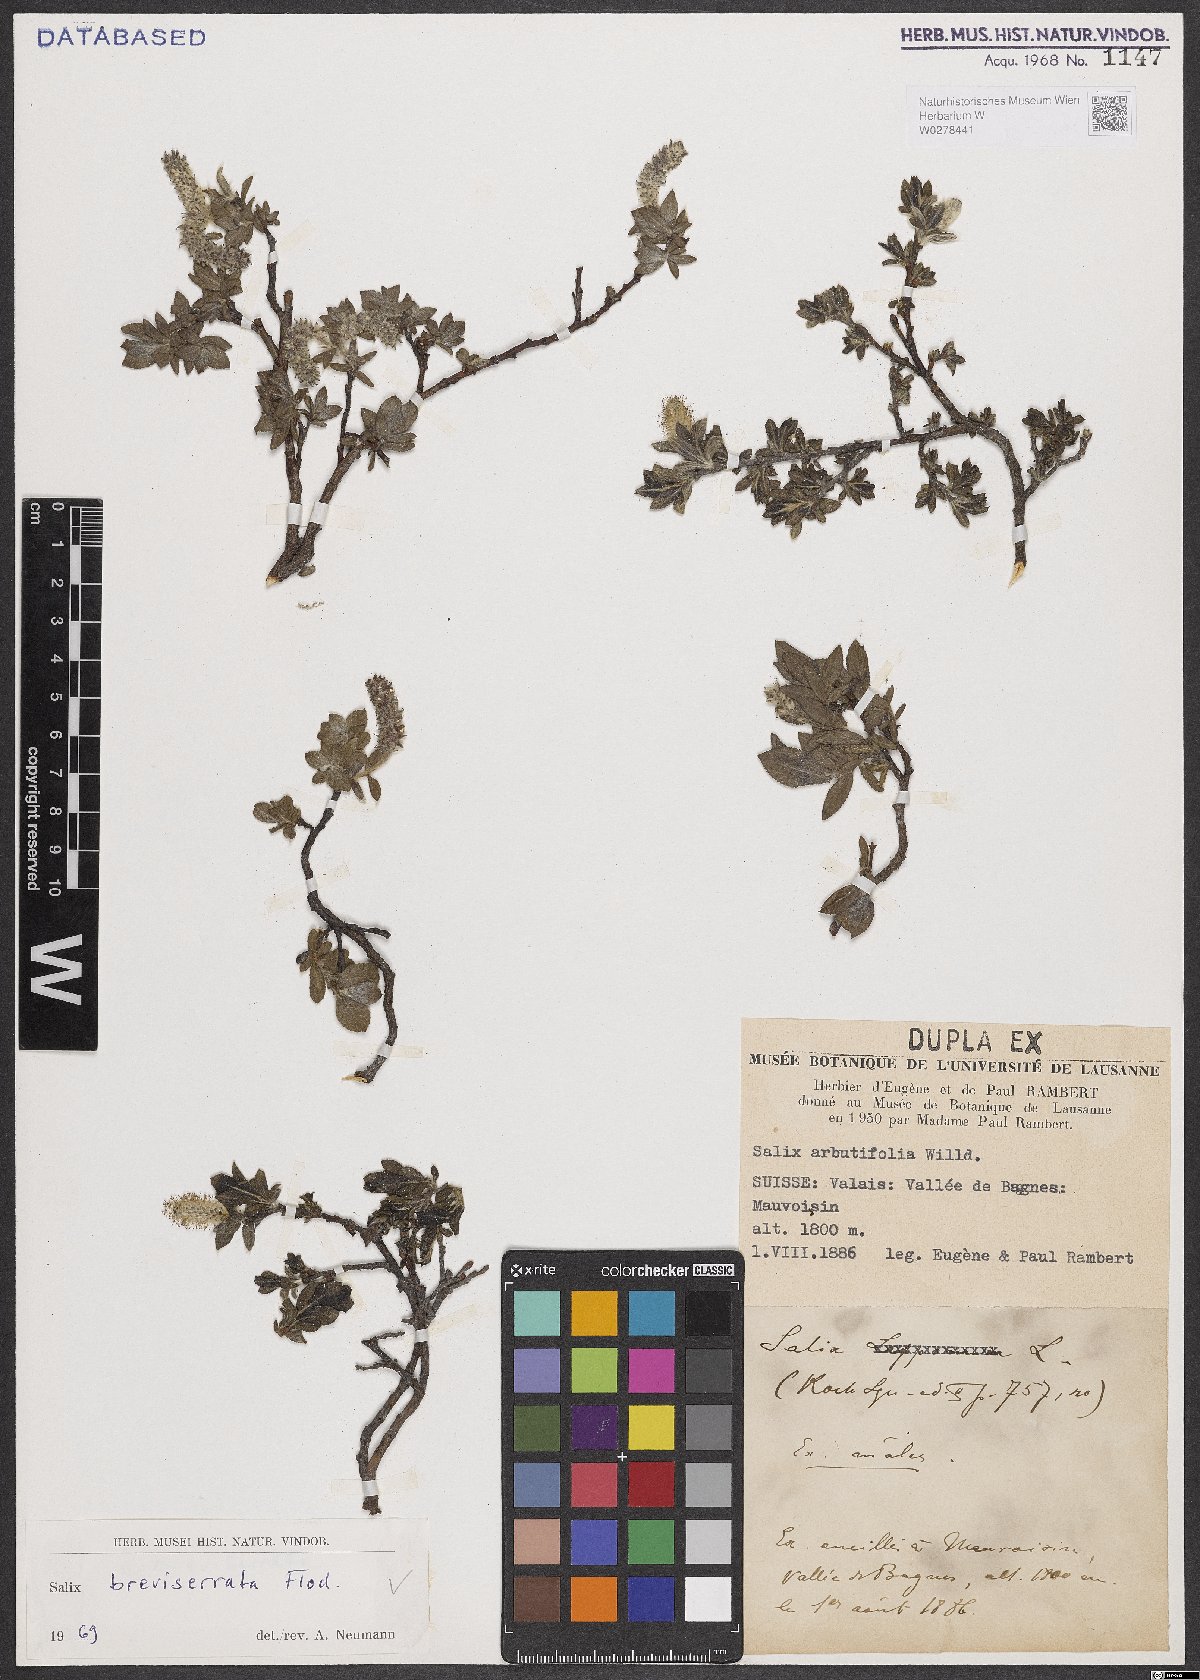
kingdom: Plantae
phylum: Tracheophyta
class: Magnoliopsida
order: Malpighiales
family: Salicaceae
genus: Salix
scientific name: Salix breviserrata
